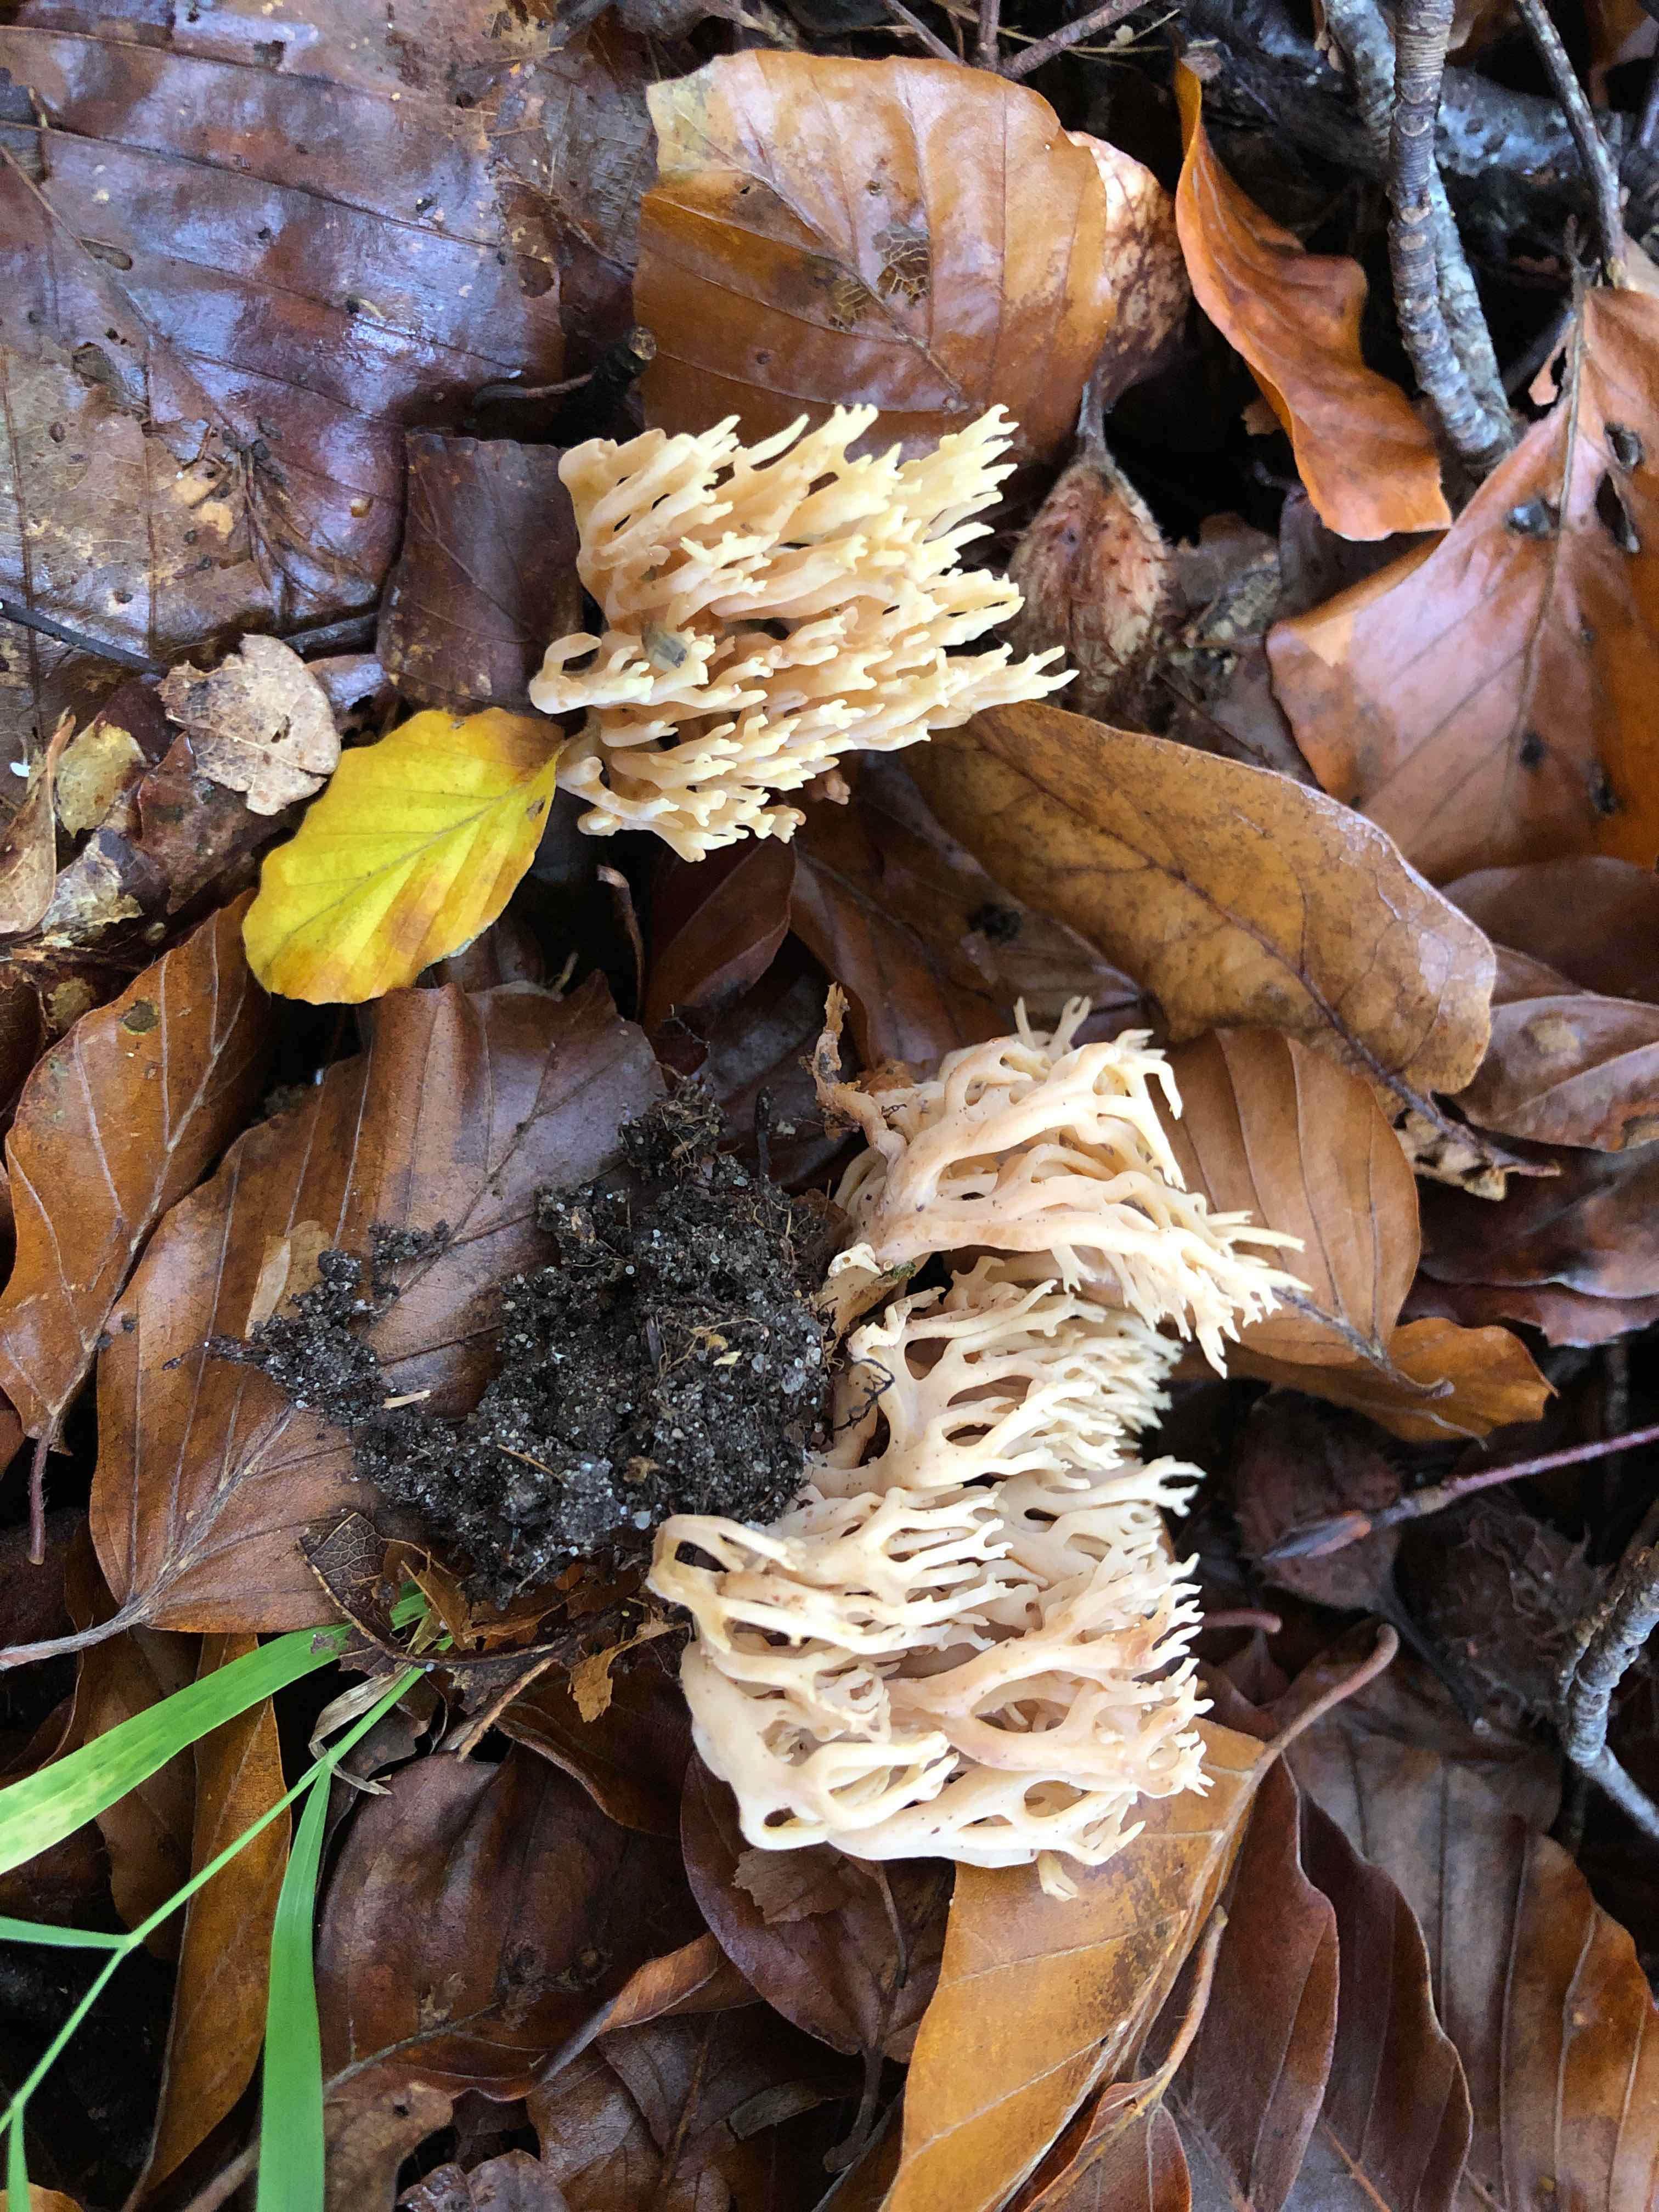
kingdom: Fungi
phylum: Basidiomycota
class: Agaricomycetes
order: Gomphales
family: Gomphaceae
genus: Ramaria
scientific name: Ramaria stricta
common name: rank koralsvamp
